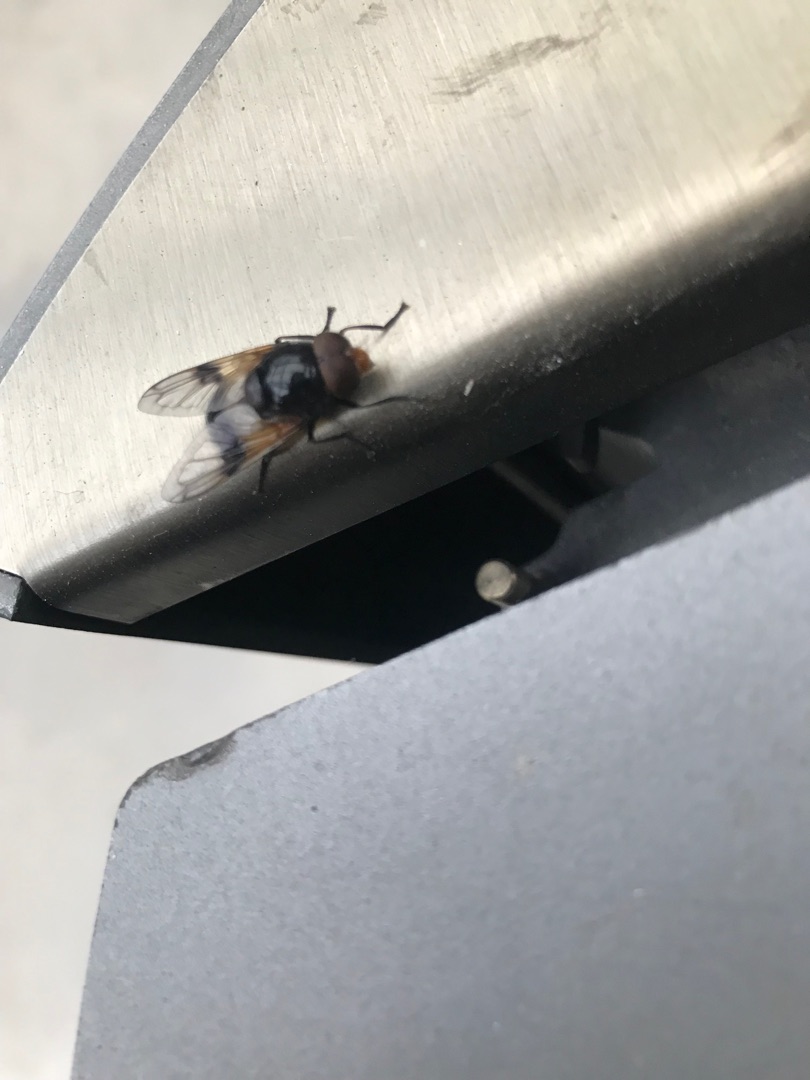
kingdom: Animalia
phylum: Arthropoda
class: Insecta
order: Diptera
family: Syrphidae
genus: Volucella
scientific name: Volucella pellucens
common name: Hvidbåndet humlesvirreflue
